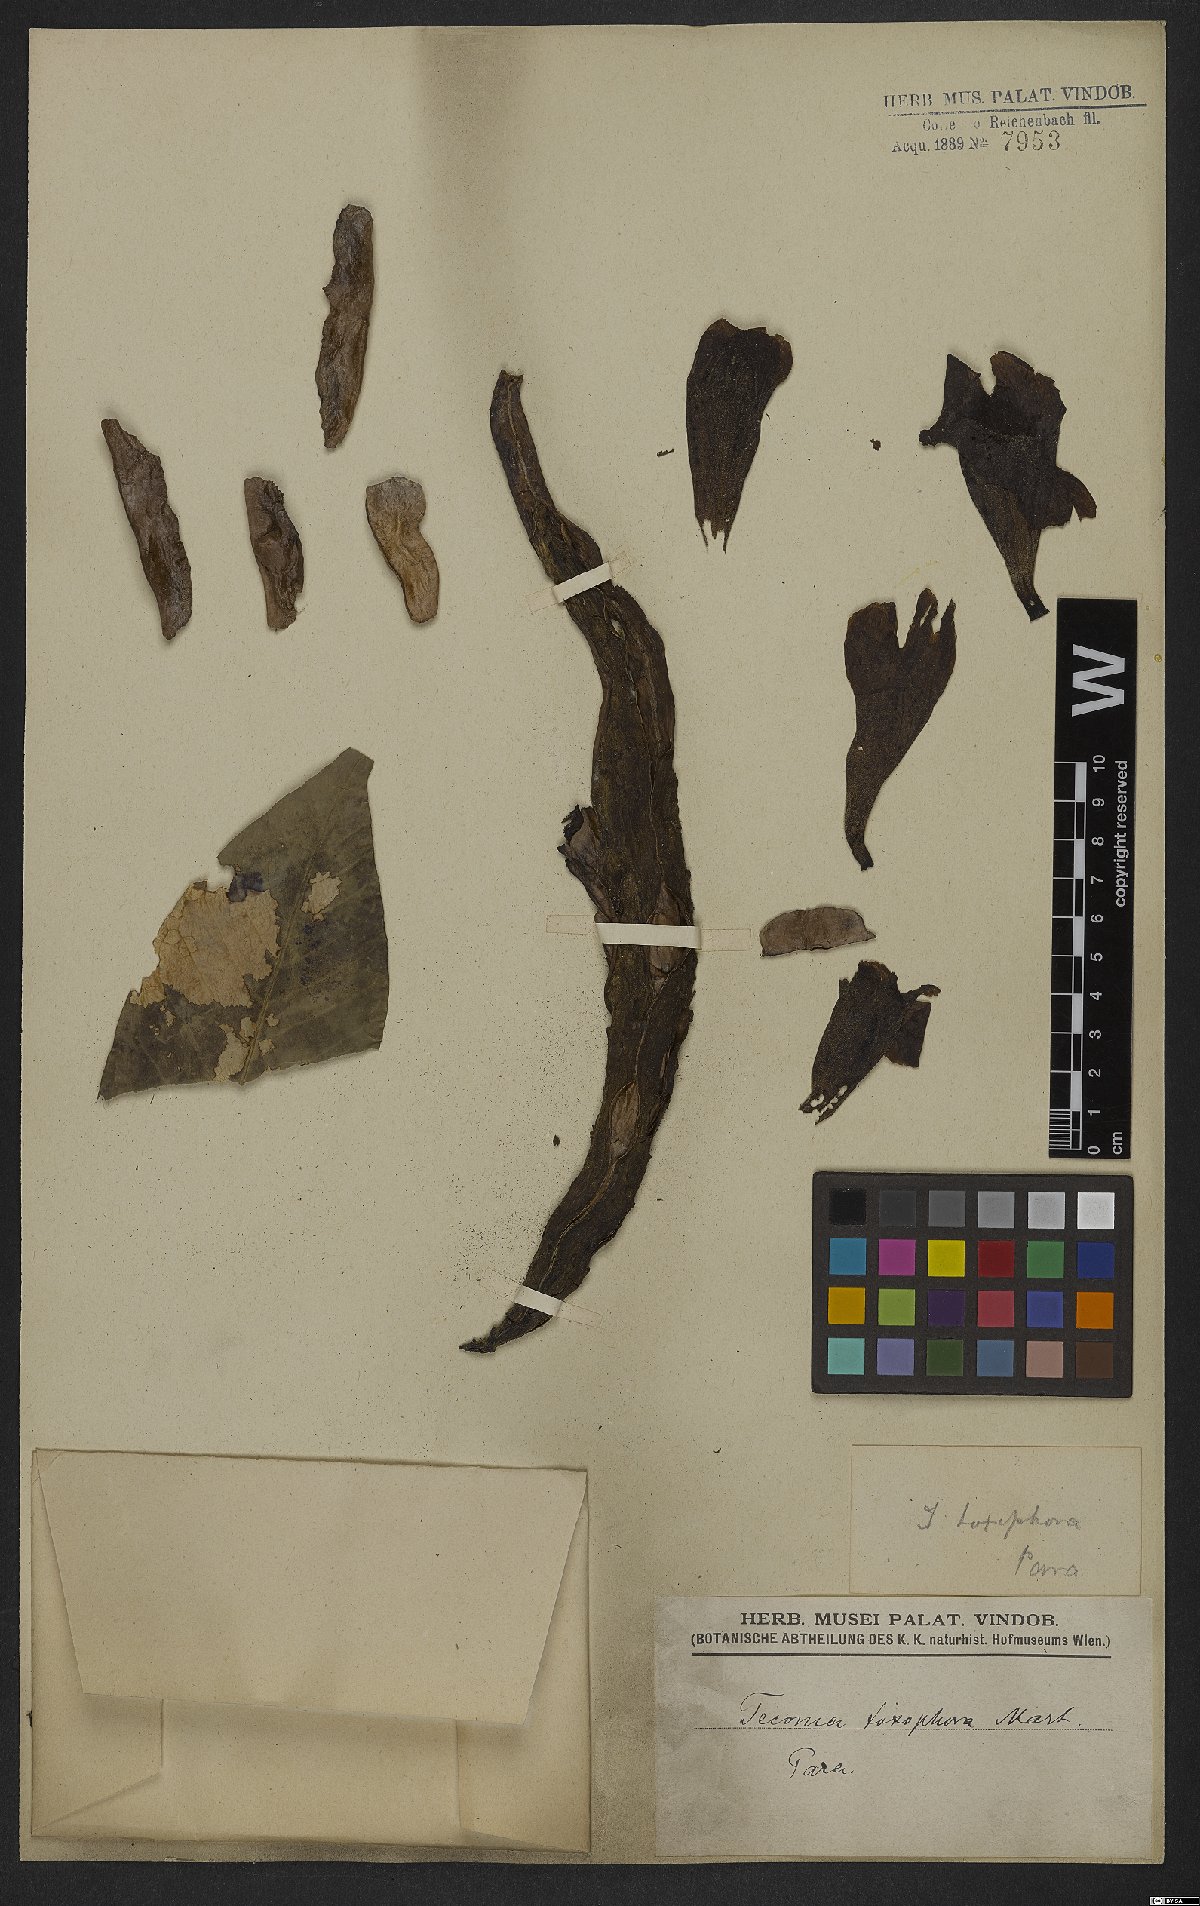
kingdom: Plantae
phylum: Tracheophyta
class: Magnoliopsida
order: Lamiales
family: Bignoniaceae
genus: Tabebuia
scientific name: Tabebuia fluviatilis
